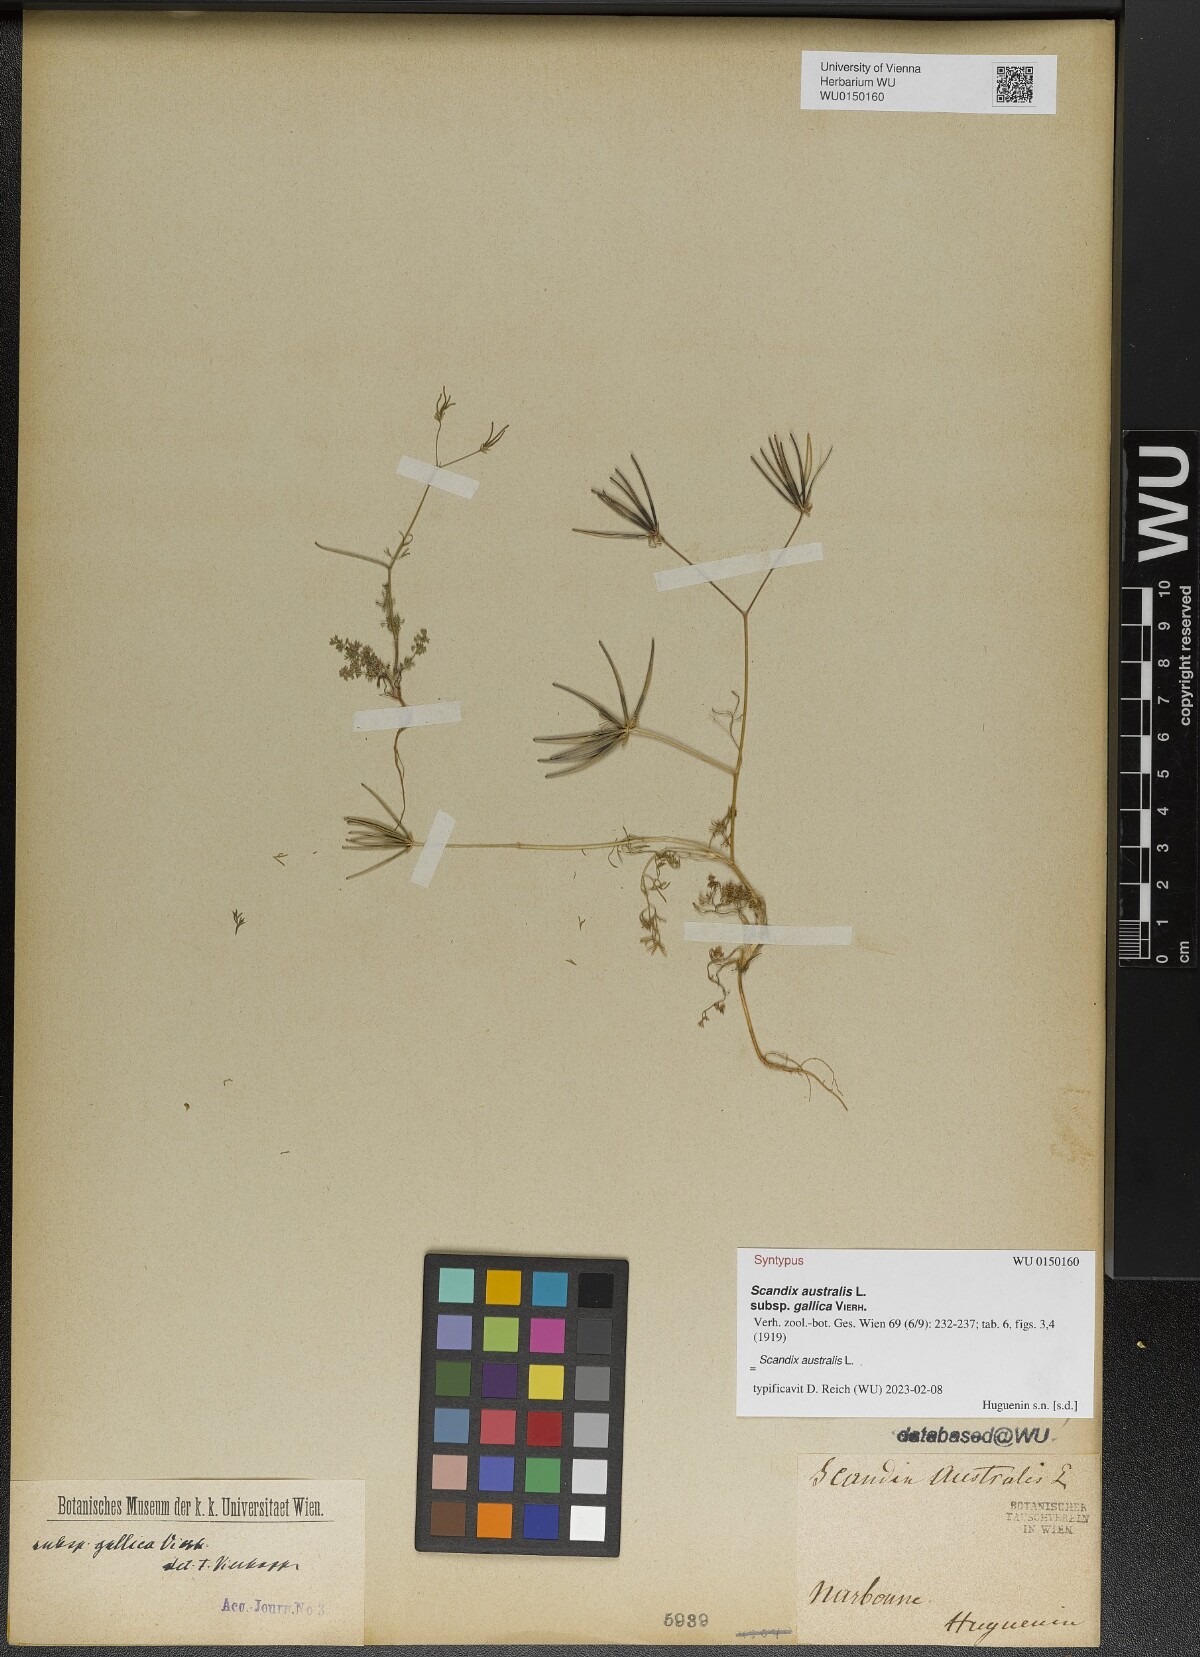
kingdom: Plantae
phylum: Tracheophyta
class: Magnoliopsida
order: Apiales
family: Apiaceae
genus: Scandix
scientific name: Scandix australis
